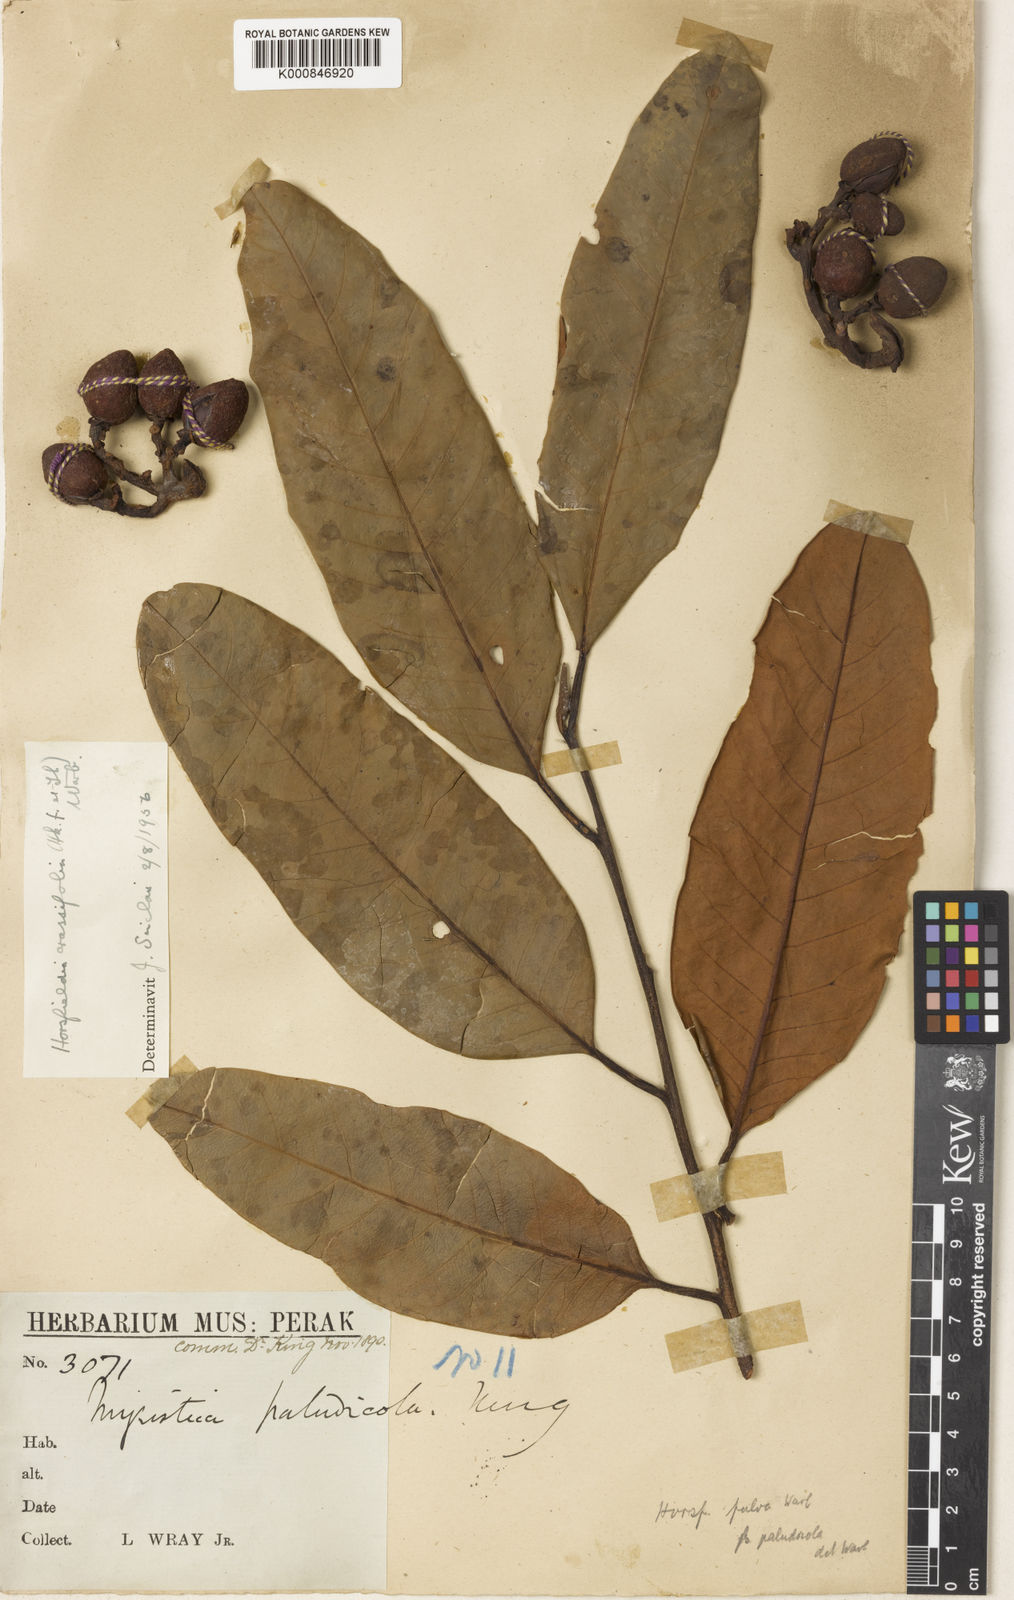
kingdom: Plantae
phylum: Tracheophyta
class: Magnoliopsida
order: Magnoliales
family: Myristicaceae
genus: Horsfieldia
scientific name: Horsfieldia crassifolia
